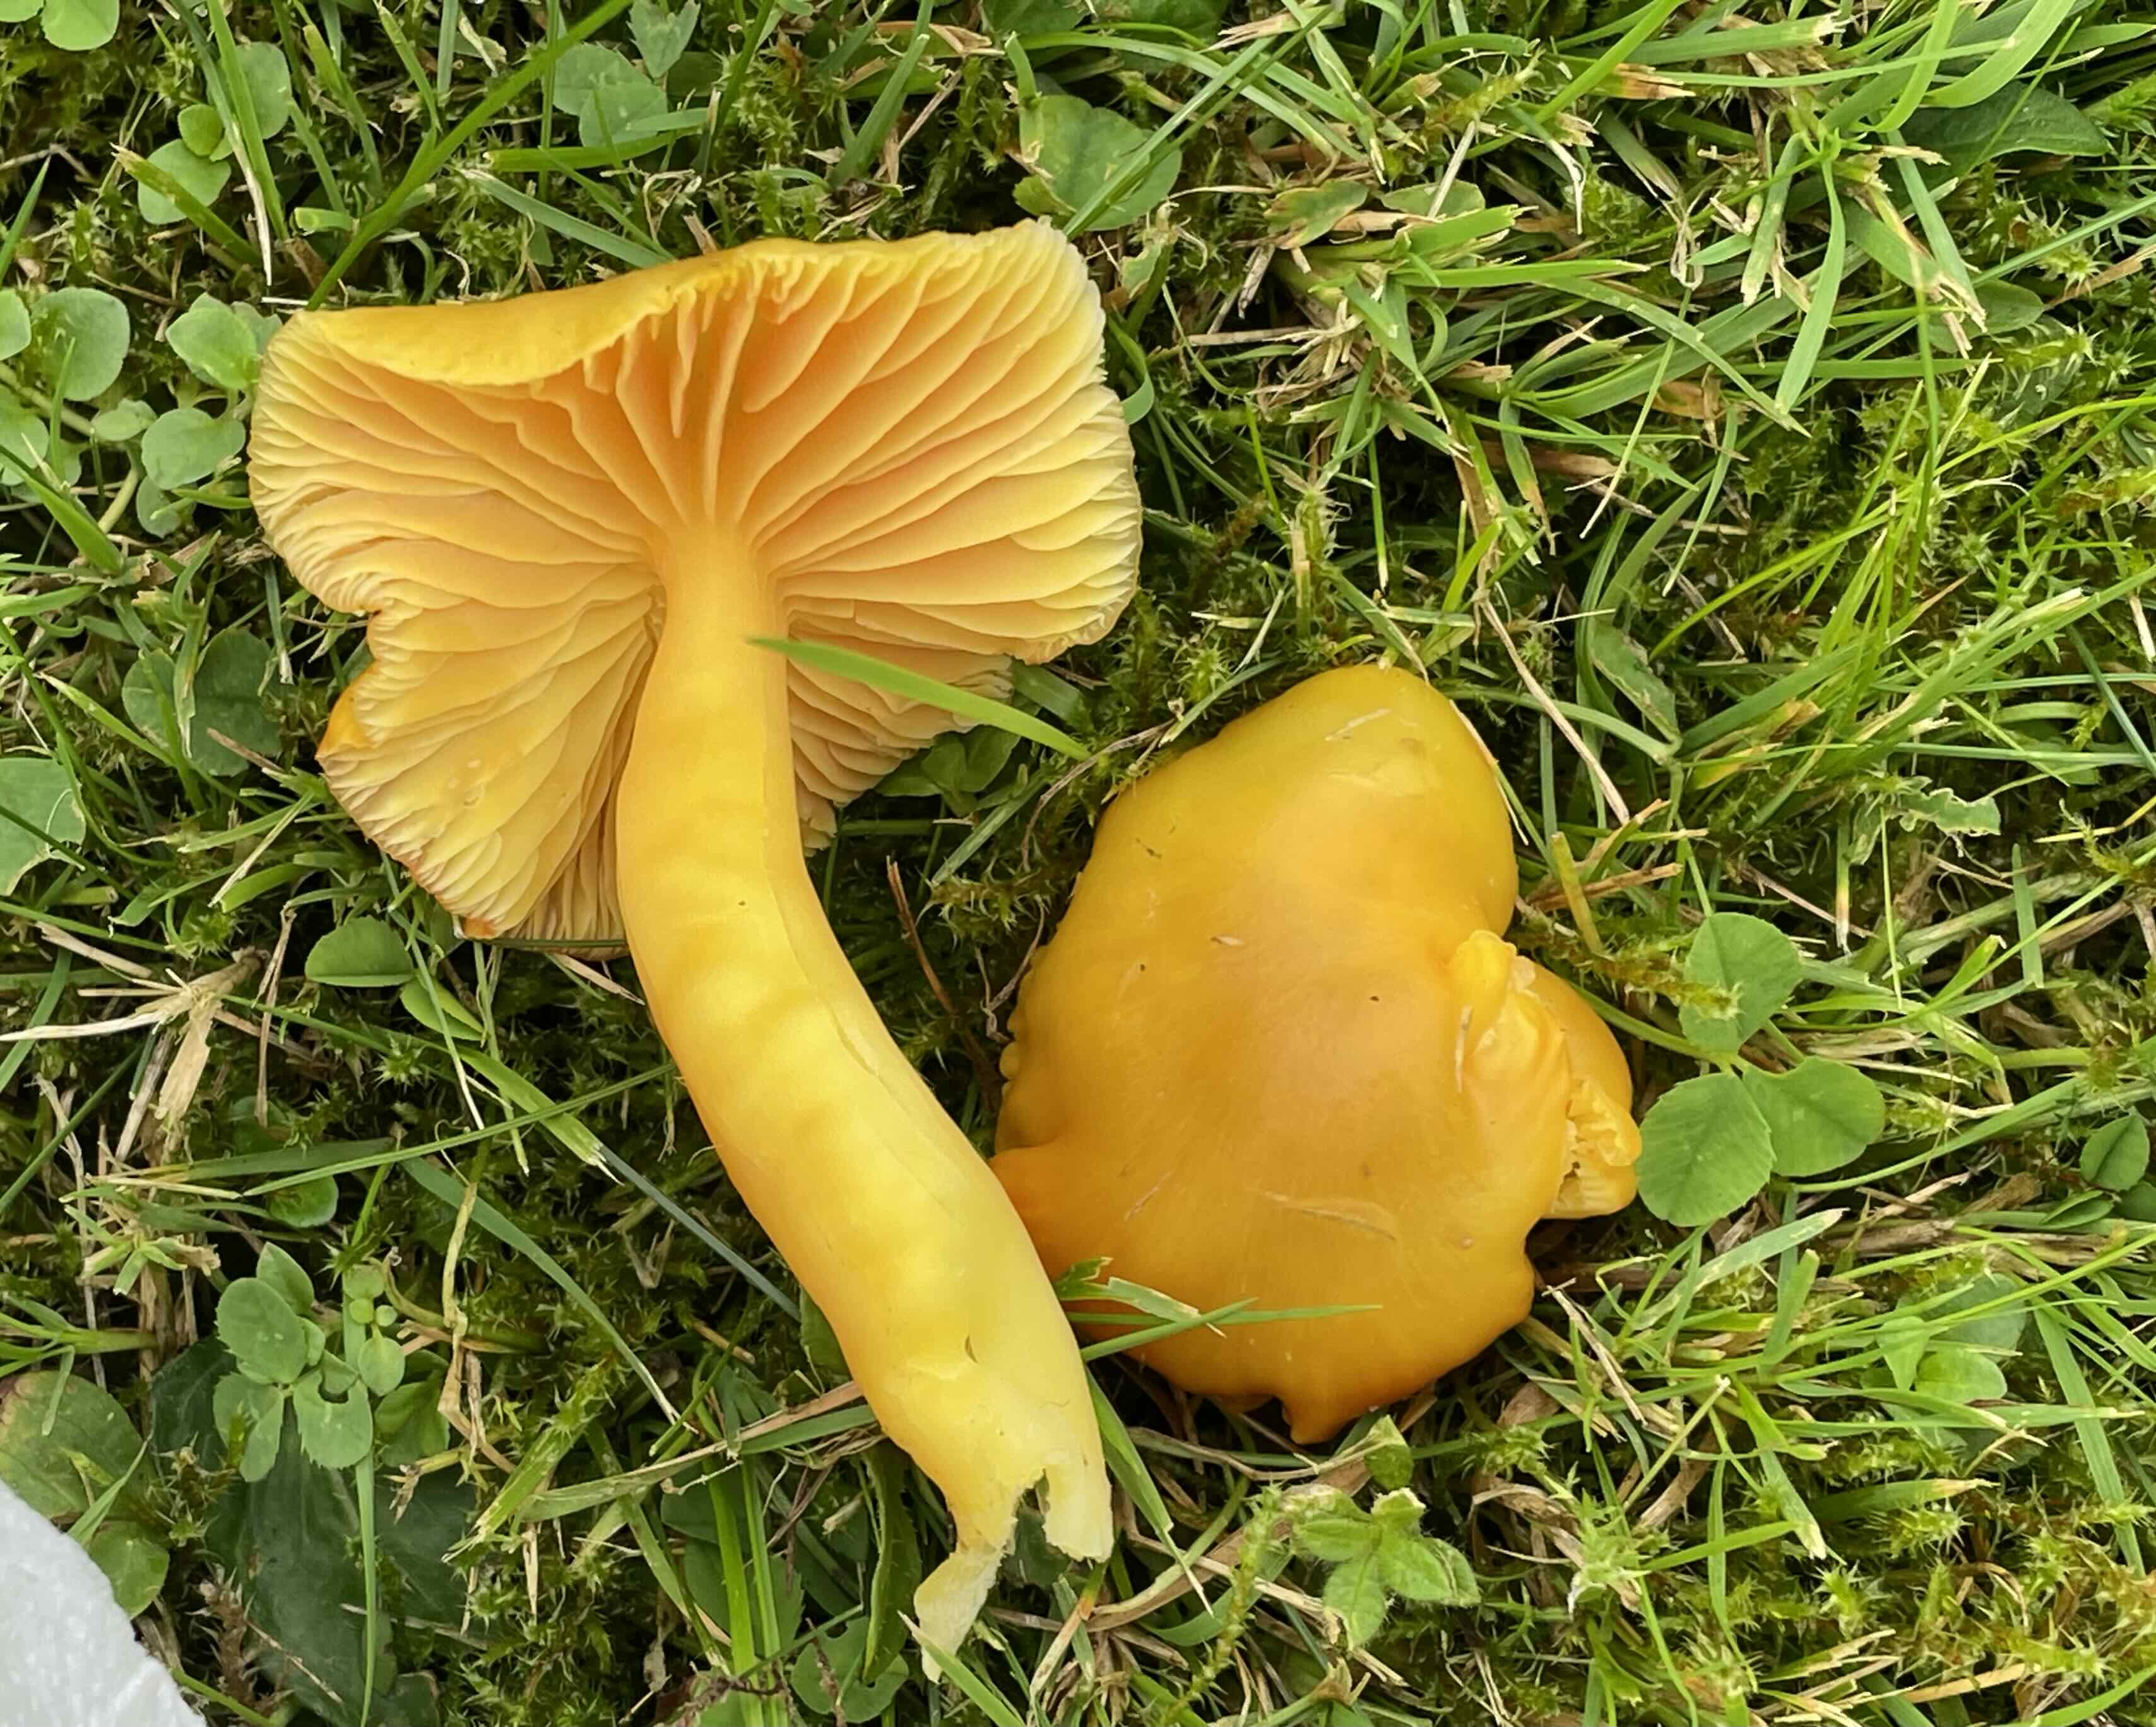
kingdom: Fungi
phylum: Basidiomycota
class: Agaricomycetes
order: Agaricales
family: Hygrophoraceae
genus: Hygrocybe
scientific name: Hygrocybe quieta
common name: tæge-vokshat
